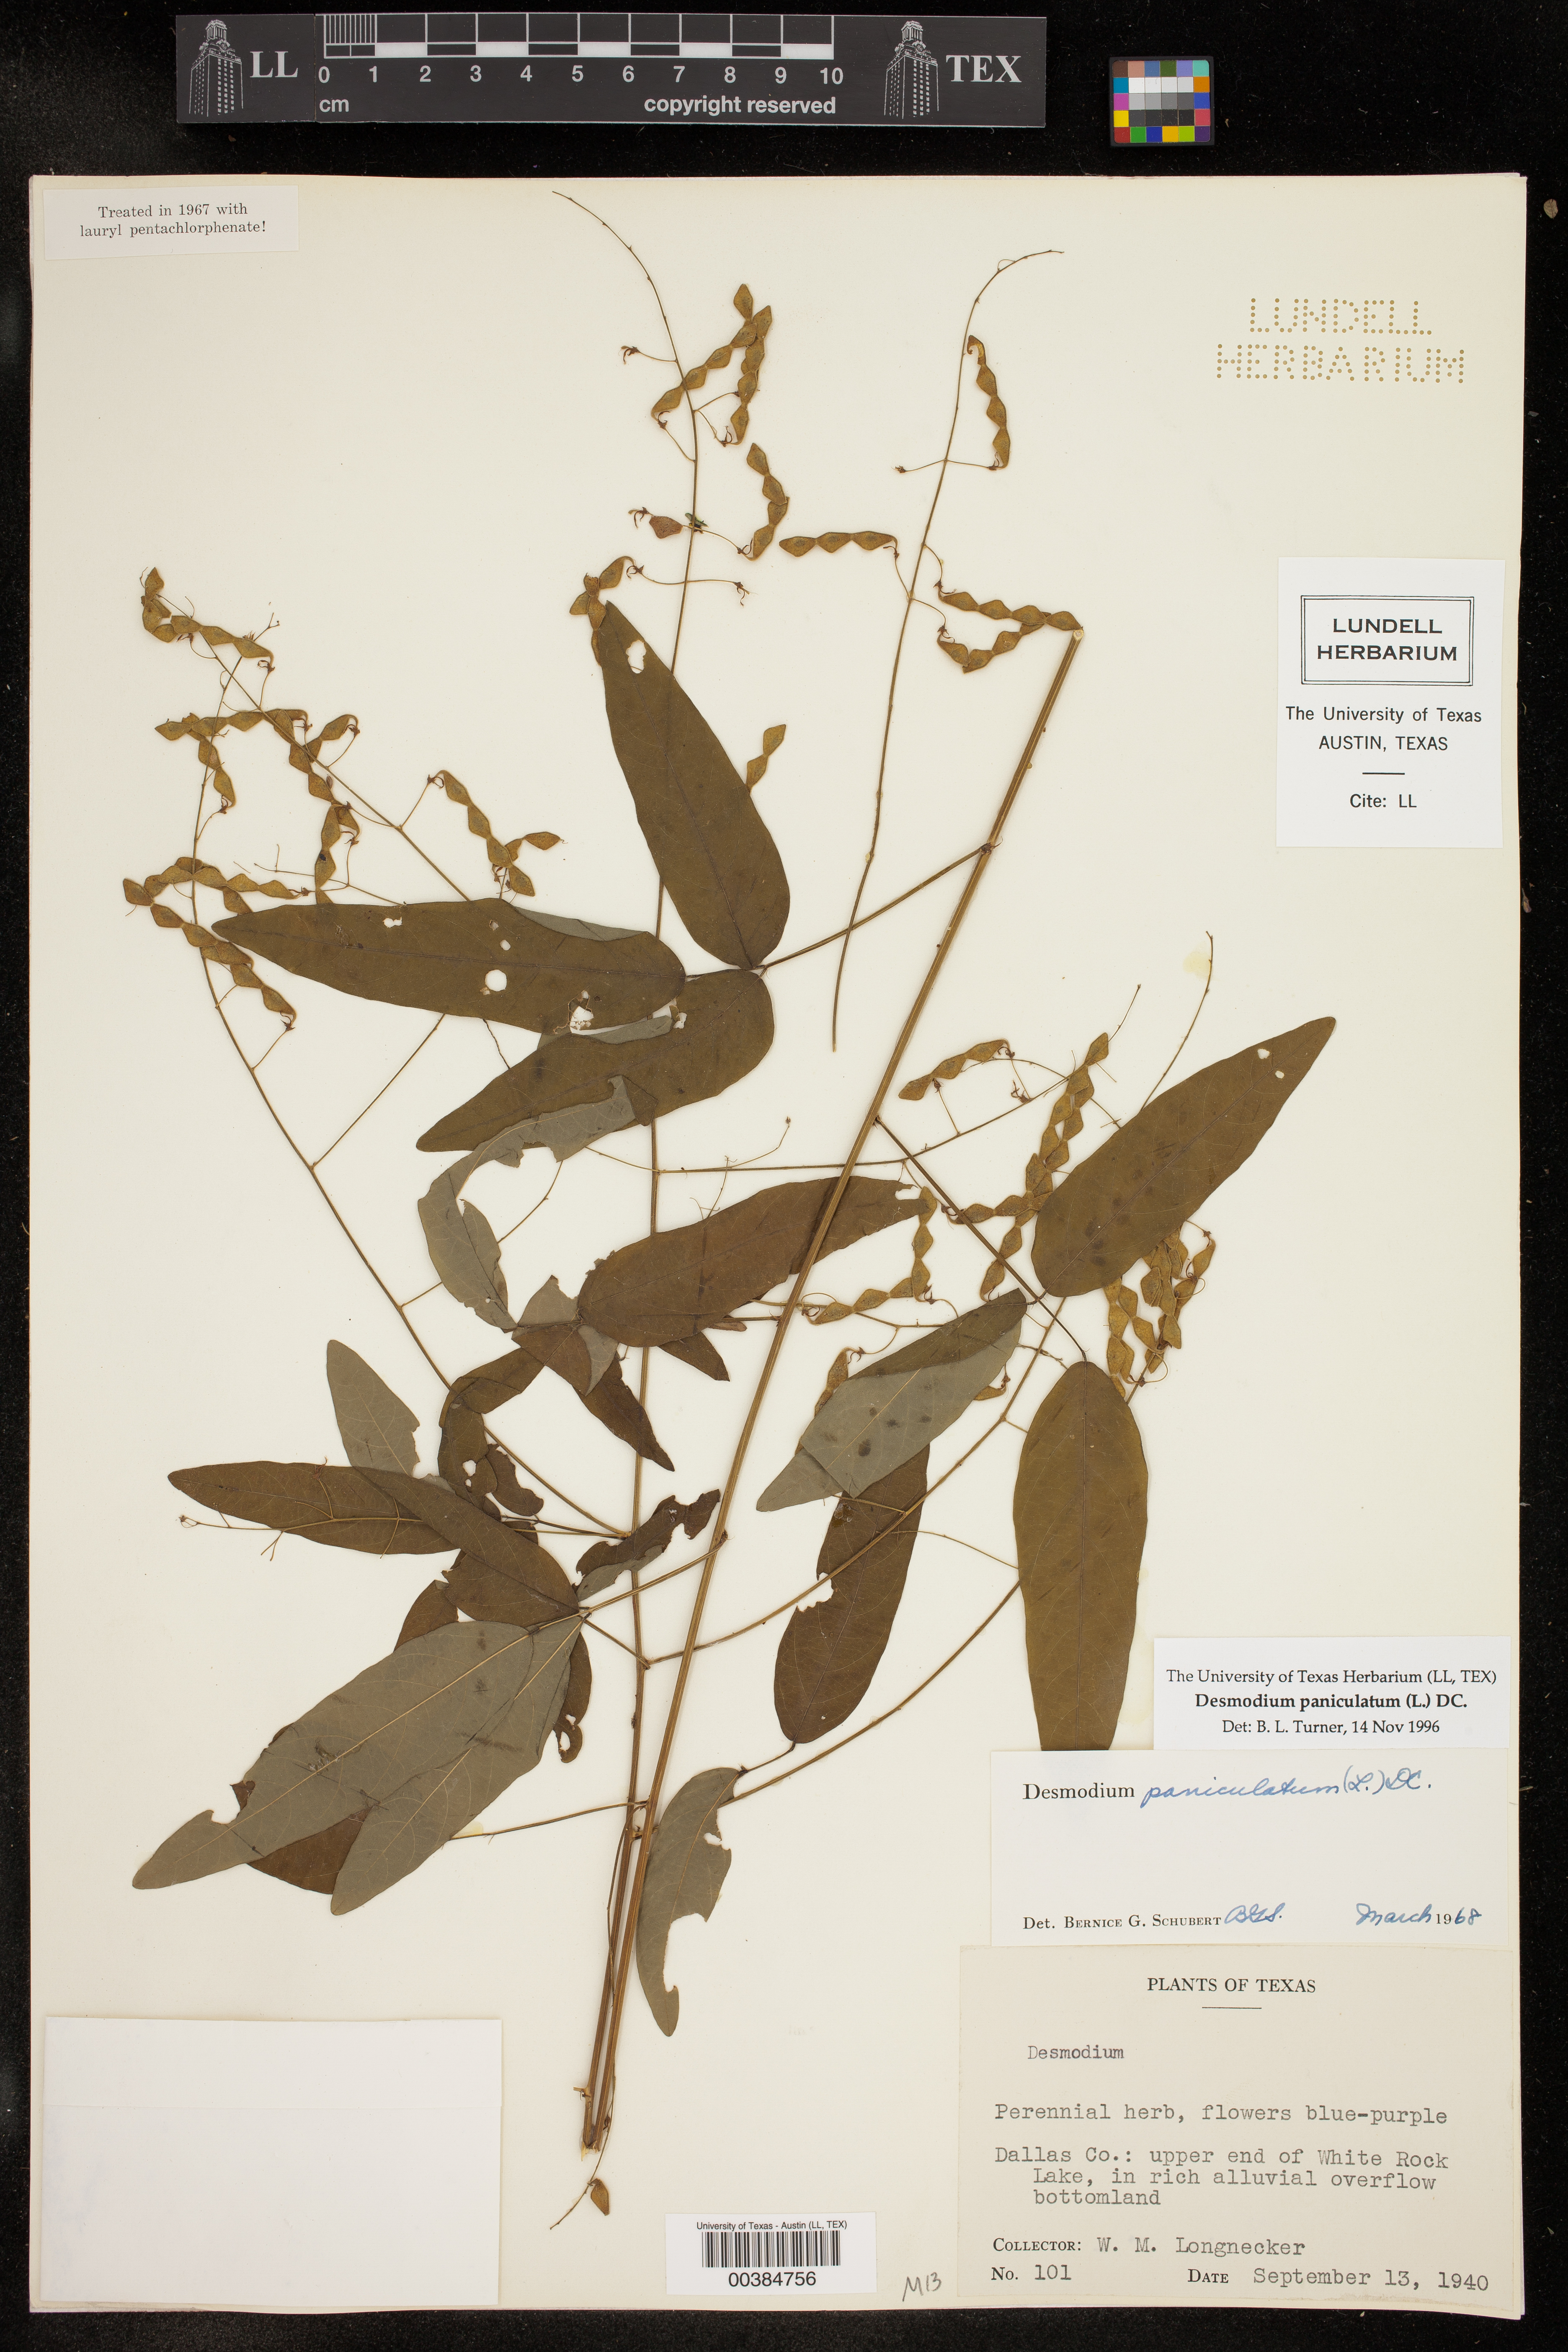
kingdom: Plantae
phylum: Tracheophyta
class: Magnoliopsida
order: Fabales
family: Fabaceae
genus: Desmodium
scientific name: Desmodium paniculatum
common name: Panicled tick-clover
